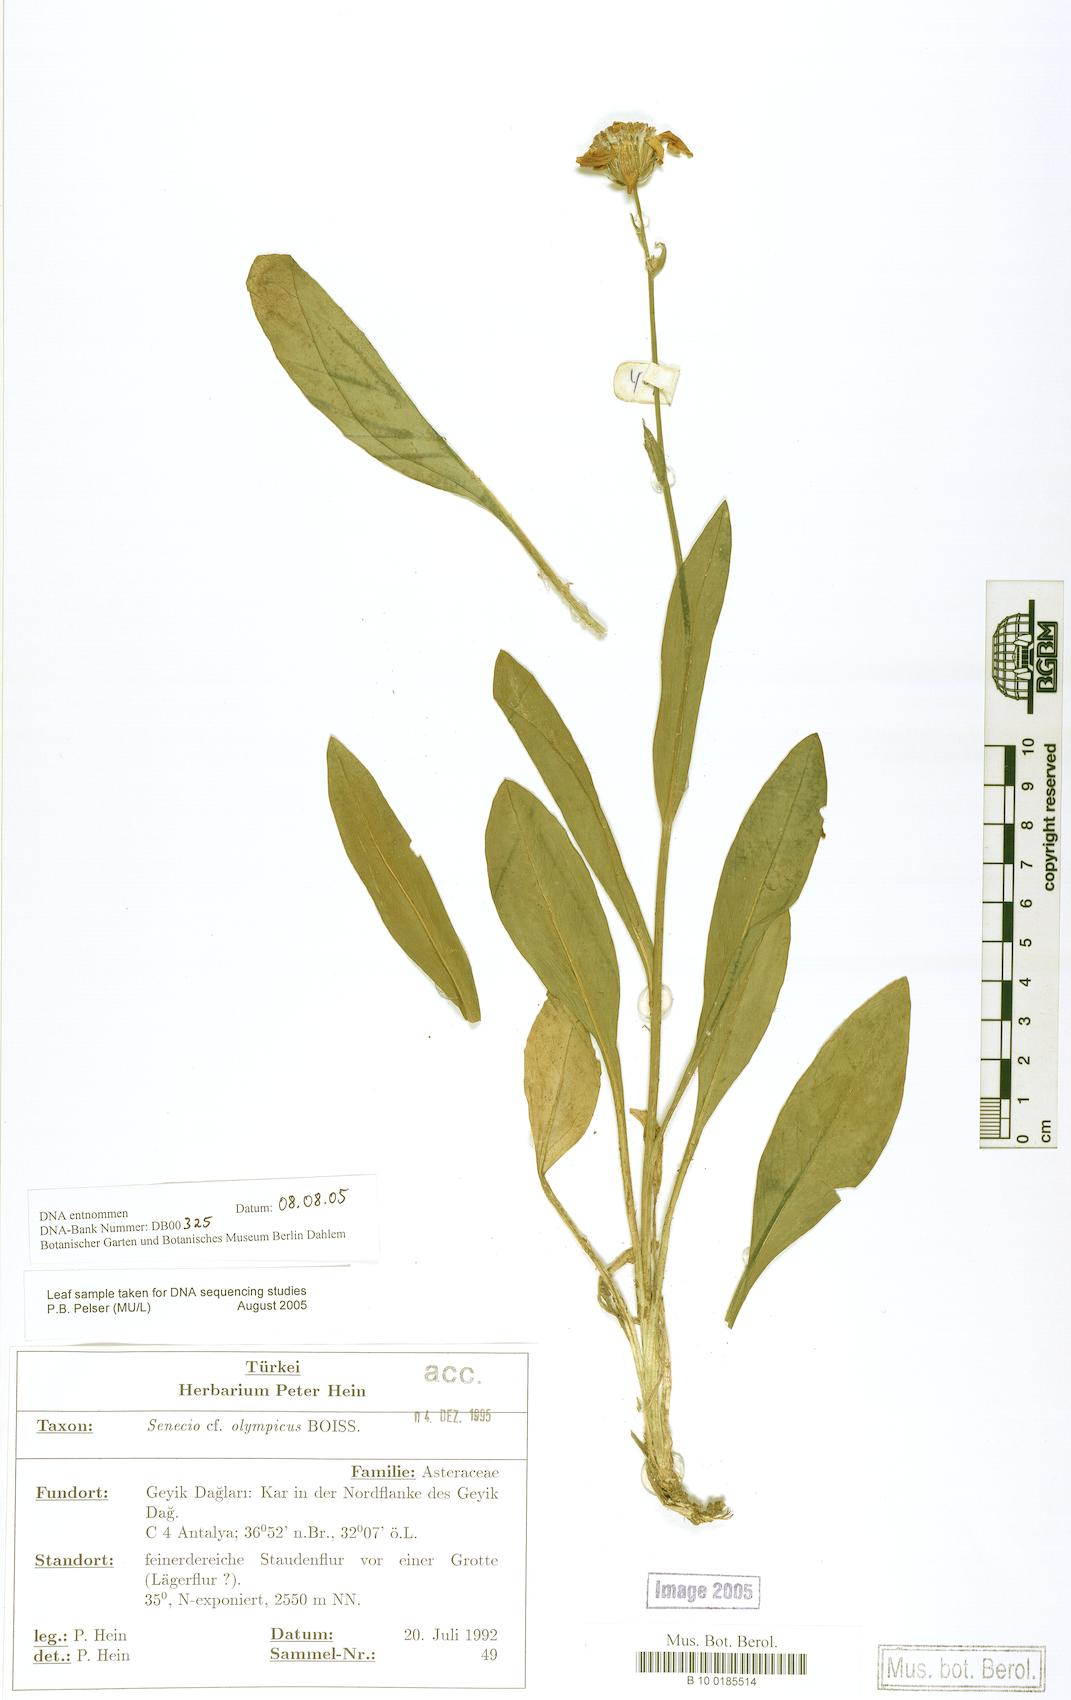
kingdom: Plantae
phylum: Tracheophyta
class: Magnoliopsida
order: Asterales
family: Asteraceae
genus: Senecio
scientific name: Senecio olympicus
